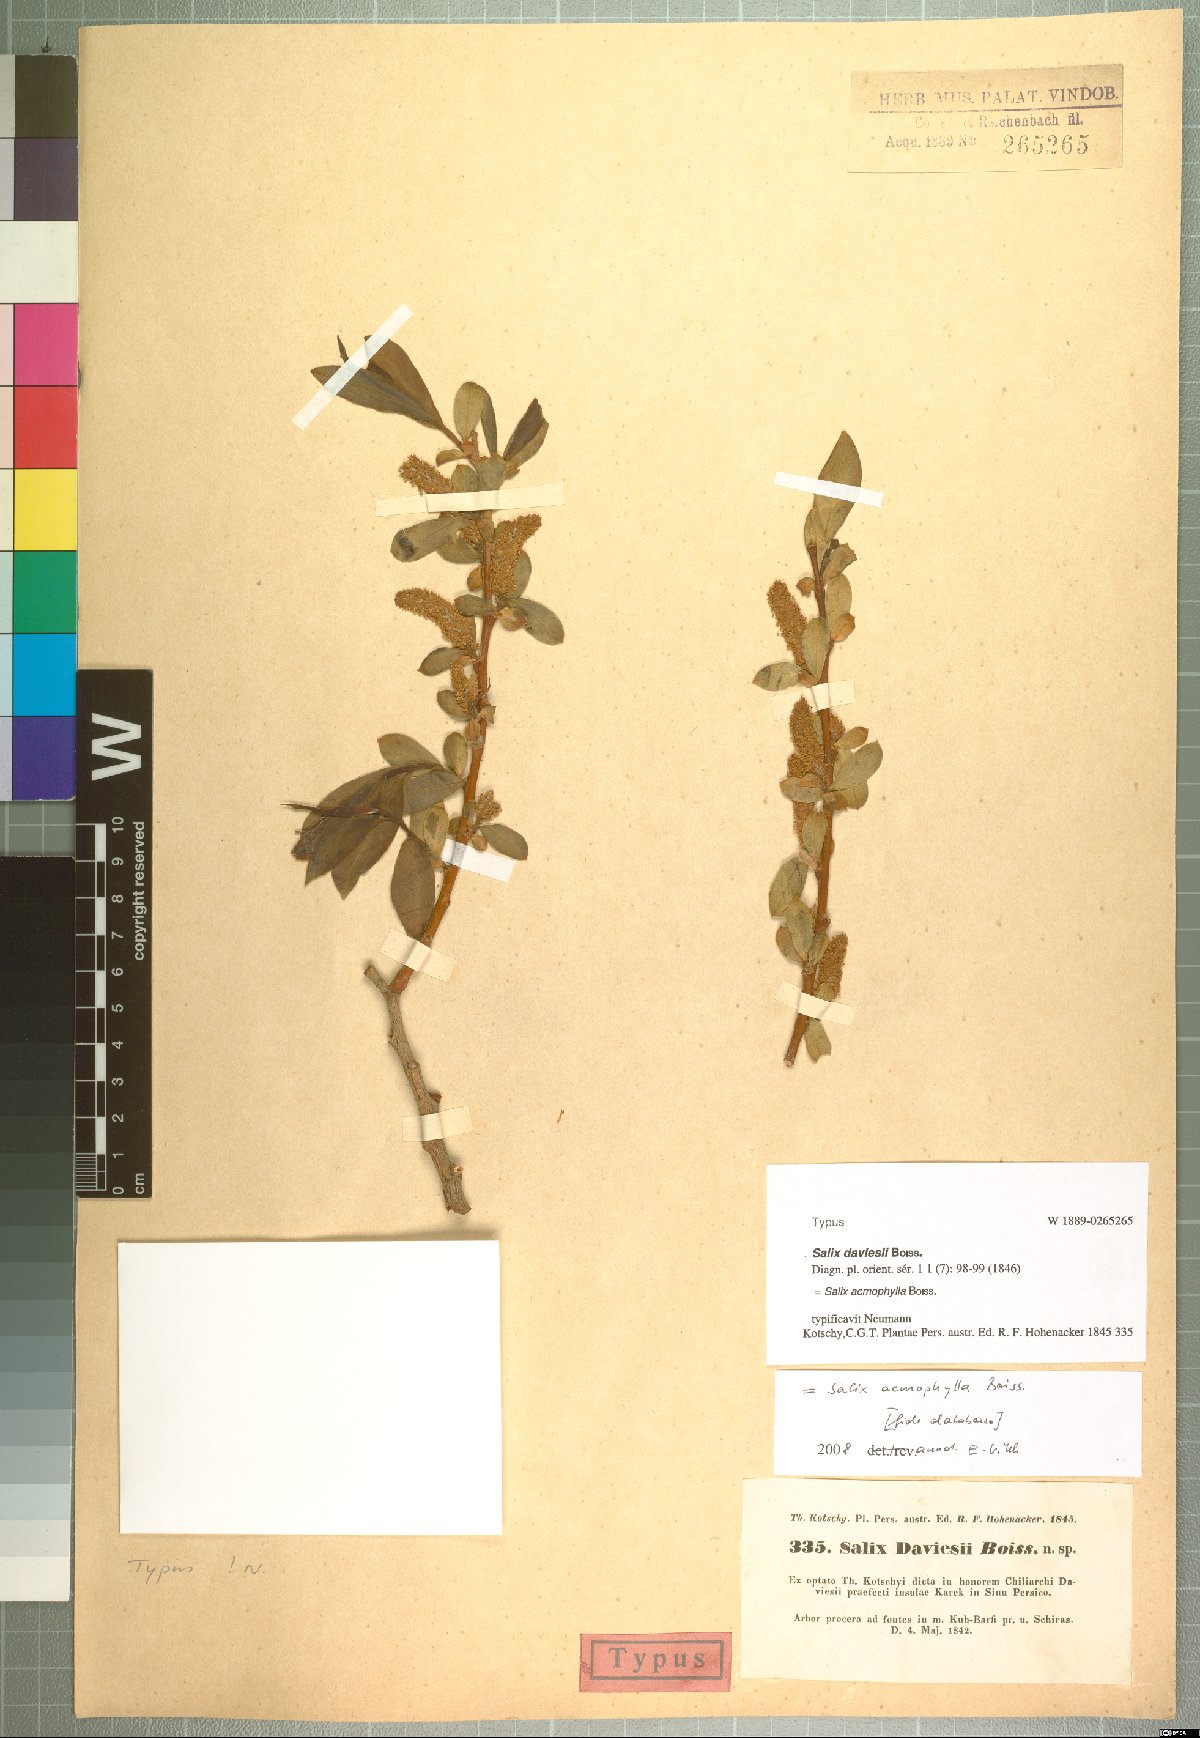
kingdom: Plantae
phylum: Tracheophyta
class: Magnoliopsida
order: Malpighiales
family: Salicaceae
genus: Salix
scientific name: Salix acmophylla
